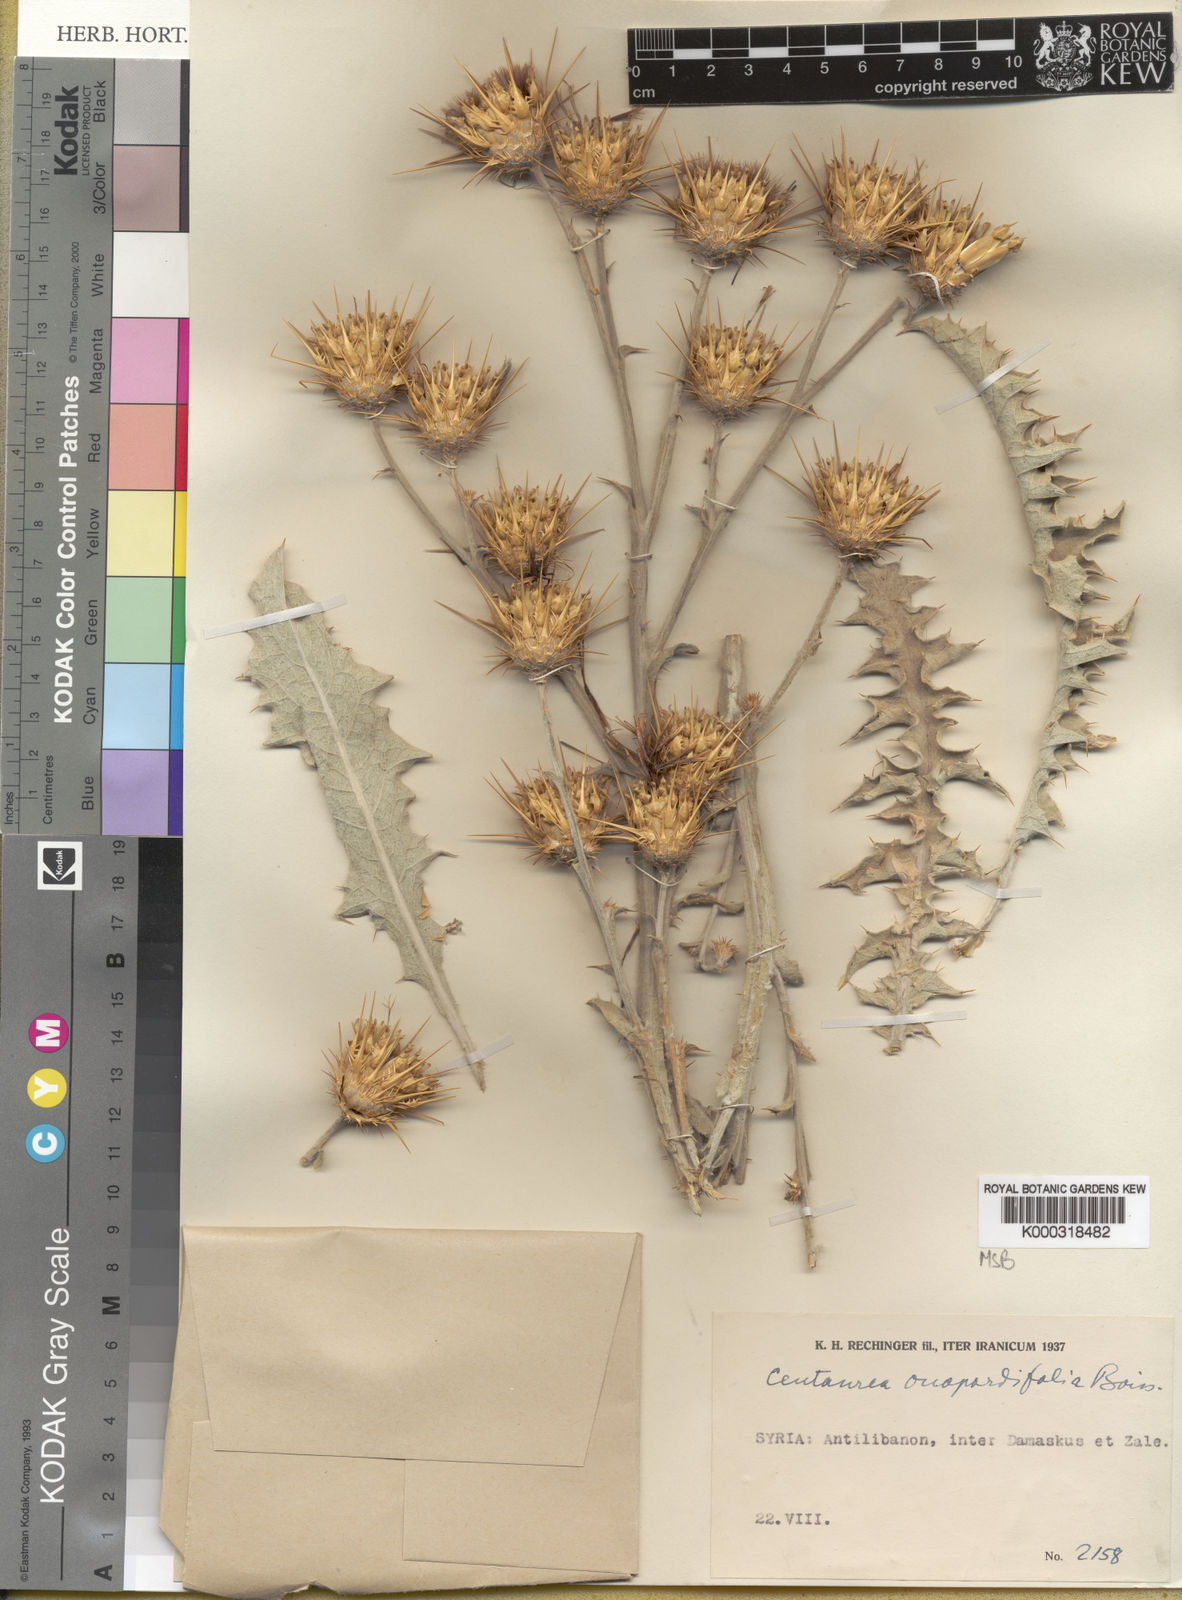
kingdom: Plantae
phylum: Tracheophyta
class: Magnoliopsida
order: Asterales
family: Asteraceae
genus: Centaurea
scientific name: Centaurea onopordifolia
